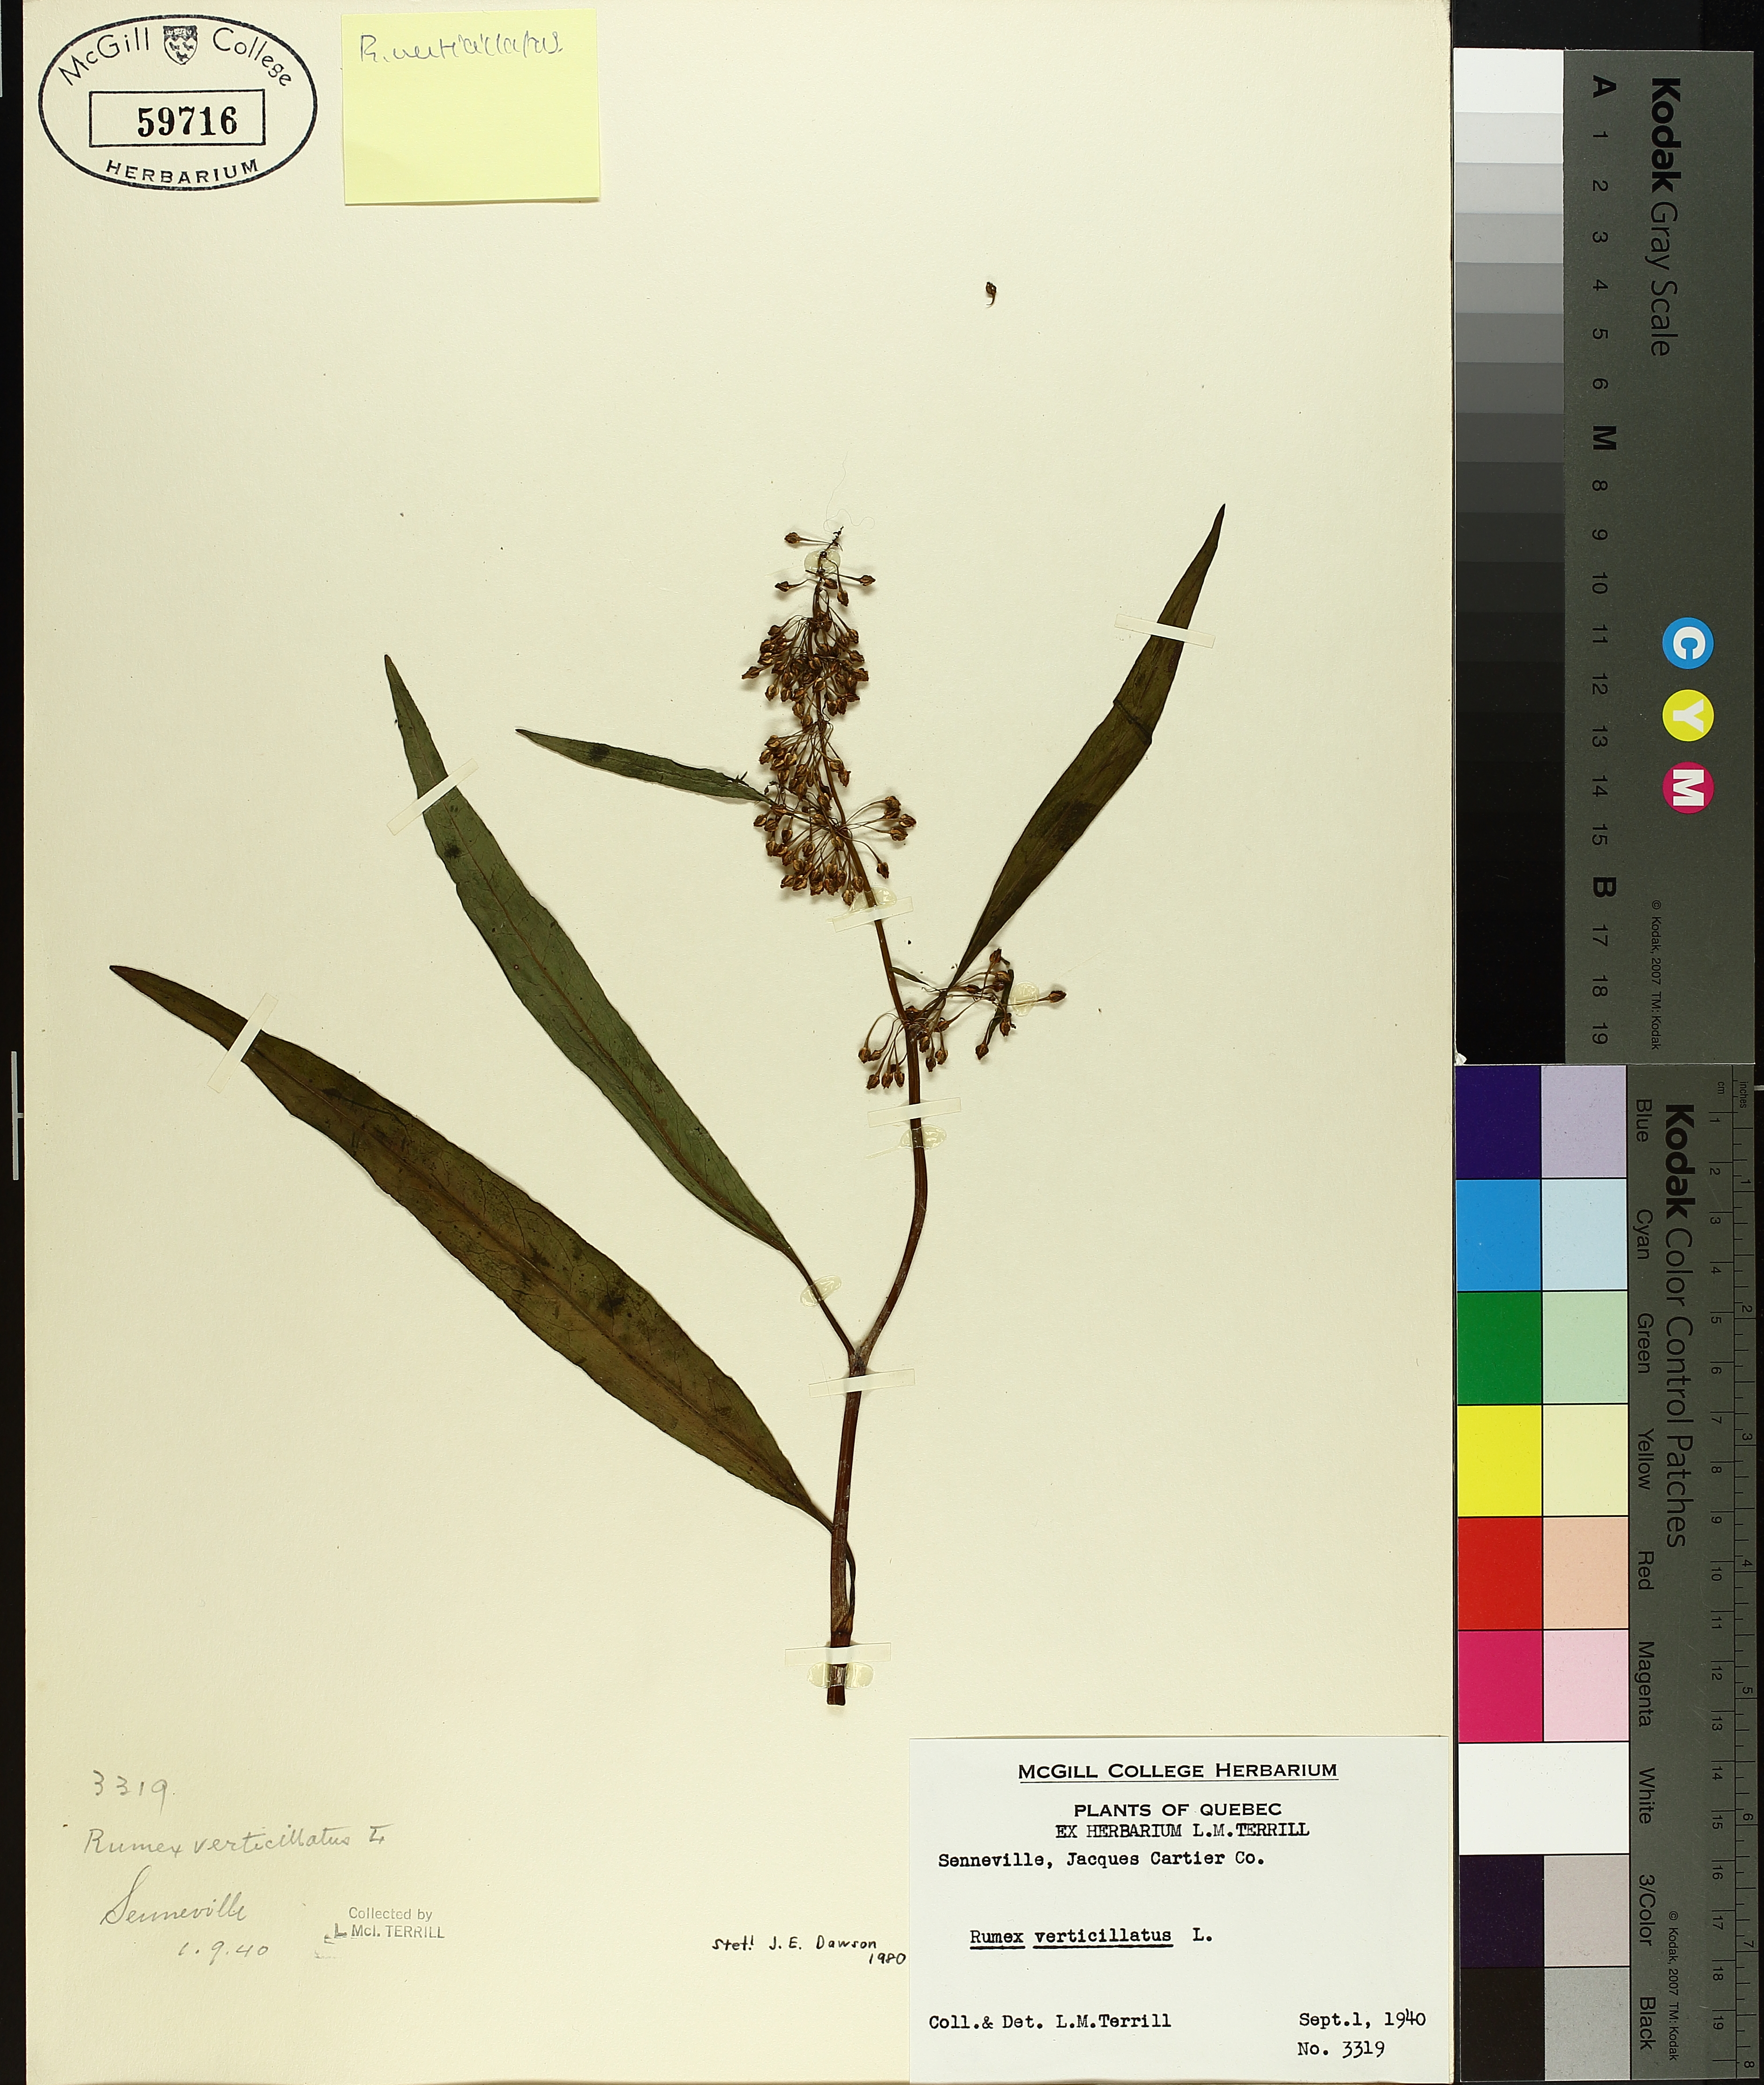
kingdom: Plantae
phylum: Tracheophyta
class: Magnoliopsida
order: Caryophyllales
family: Polygonaceae
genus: Rumex
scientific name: Rumex verticillatus
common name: Swamp dock
